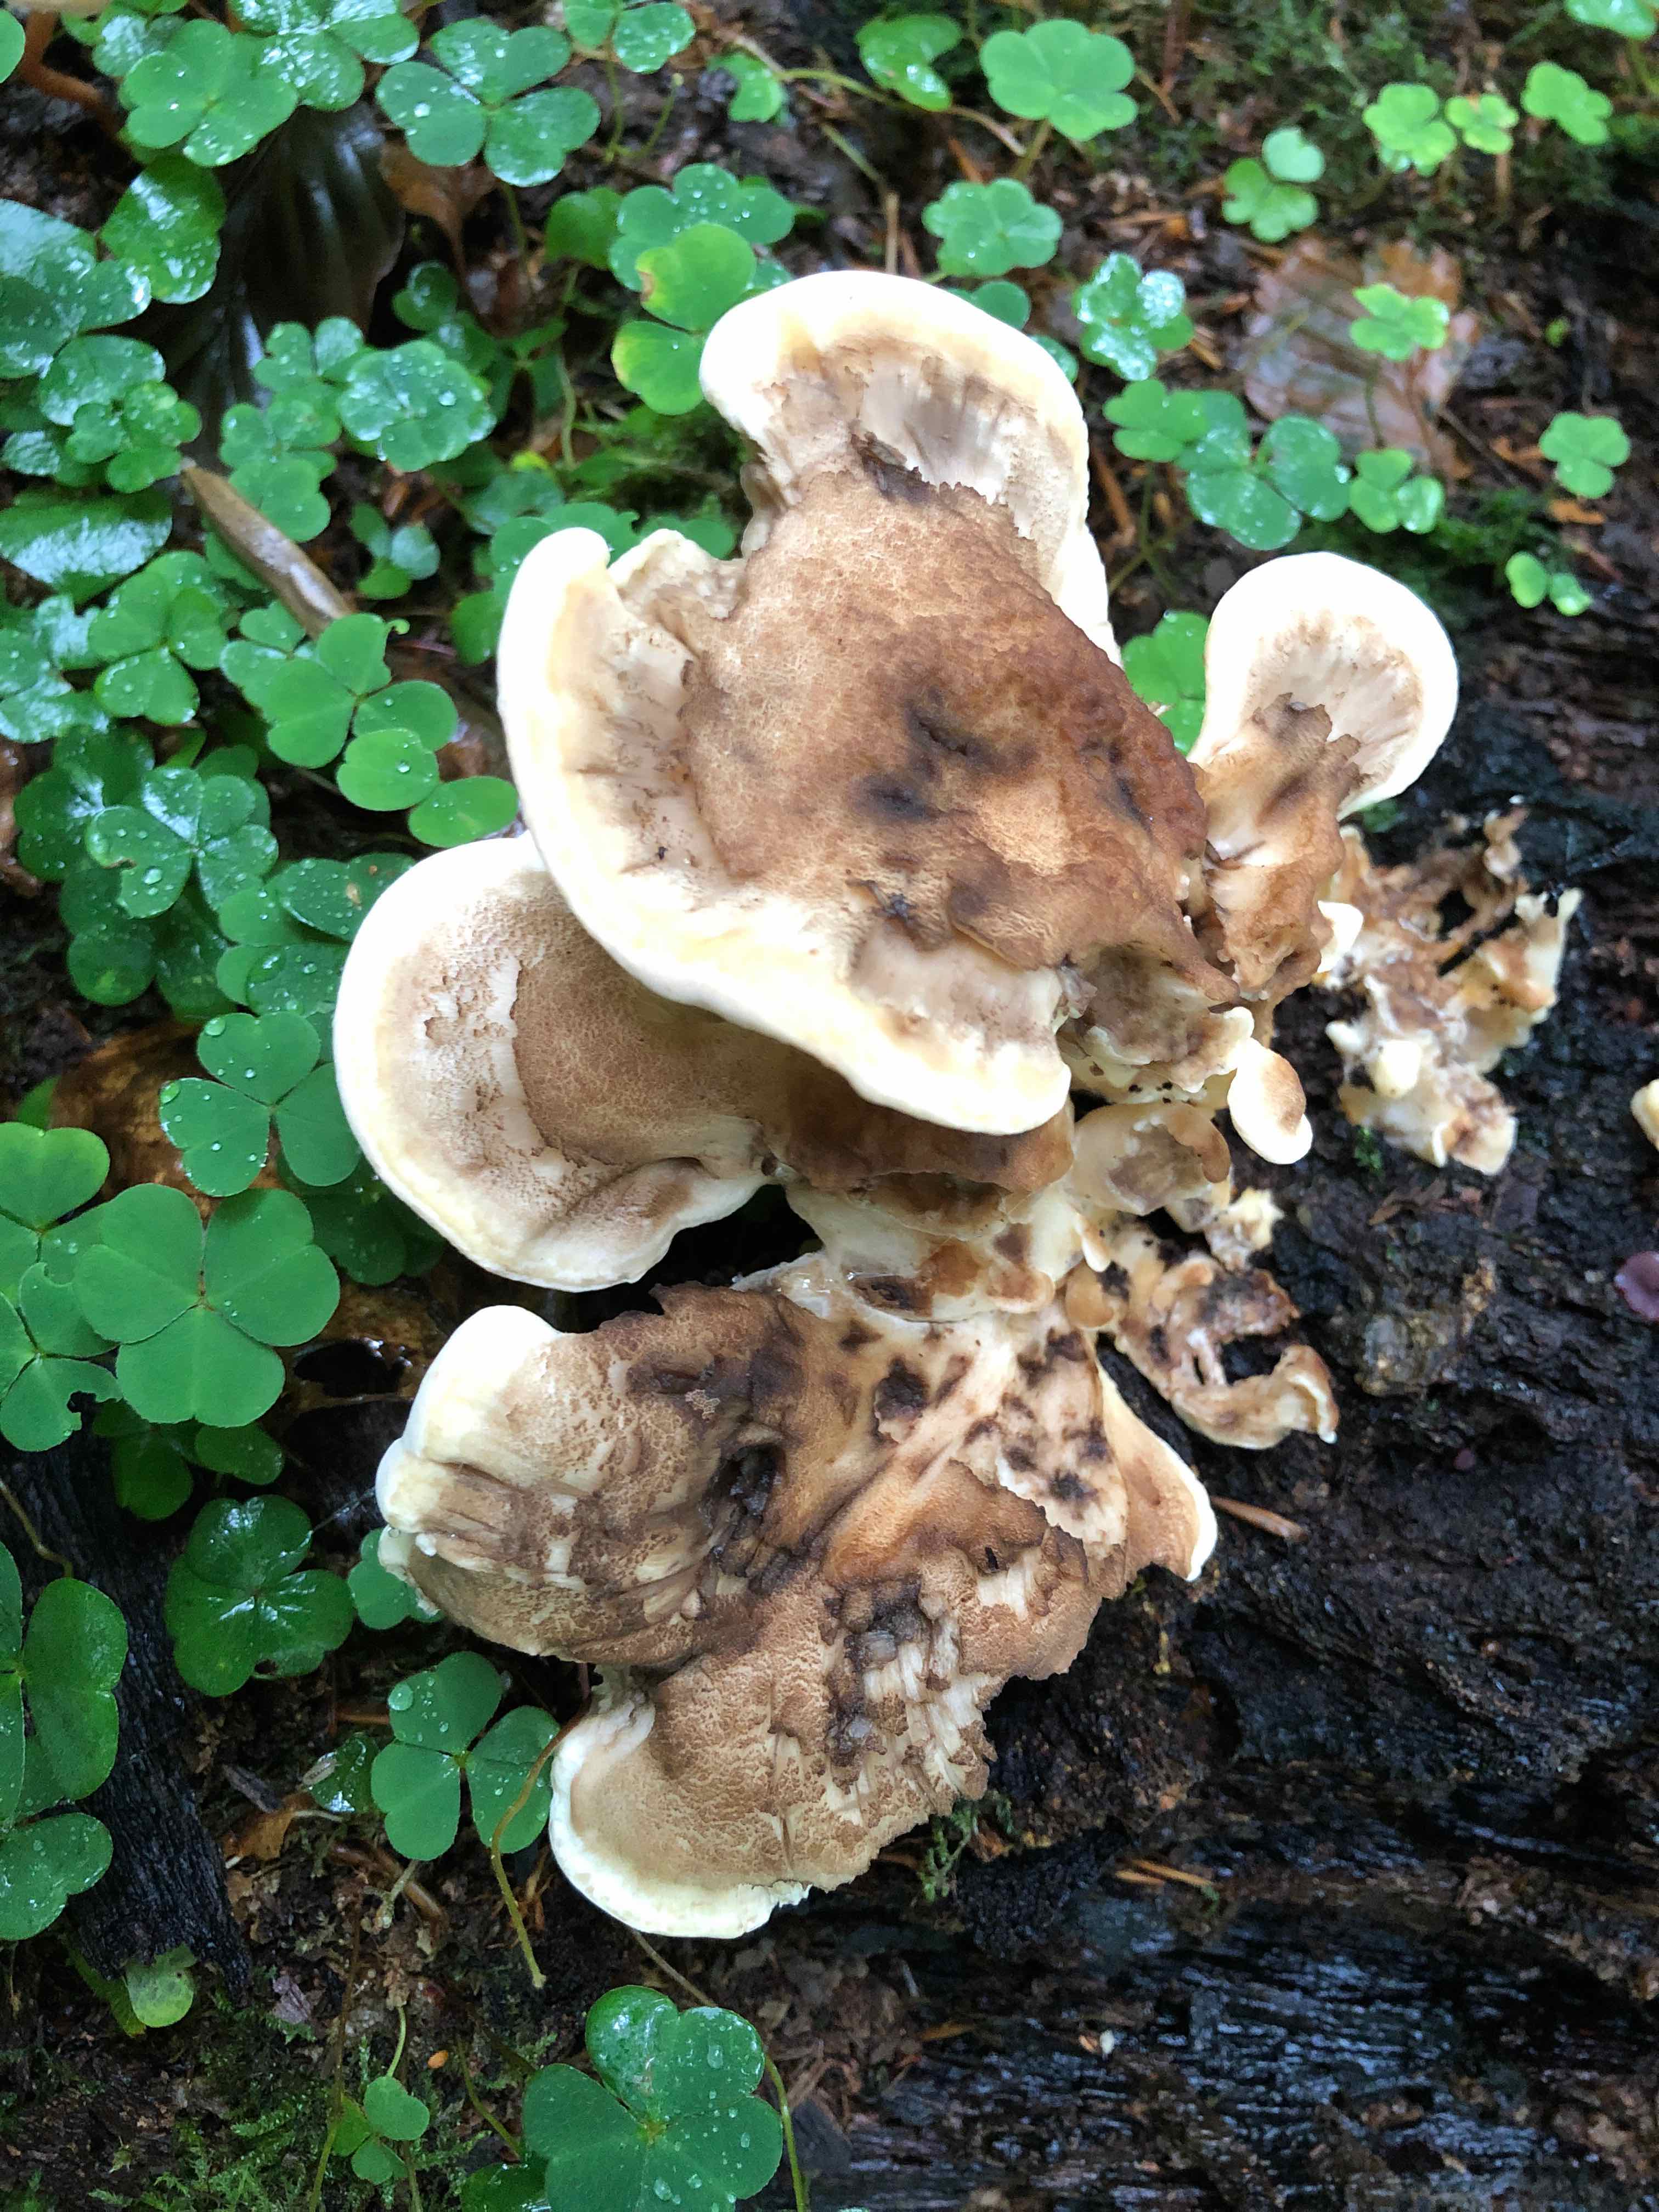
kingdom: Fungi
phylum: Basidiomycota
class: Agaricomycetes
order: Polyporales
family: Meripilaceae
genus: Meripilus
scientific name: Meripilus giganteus
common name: kæmpeporesvamp
